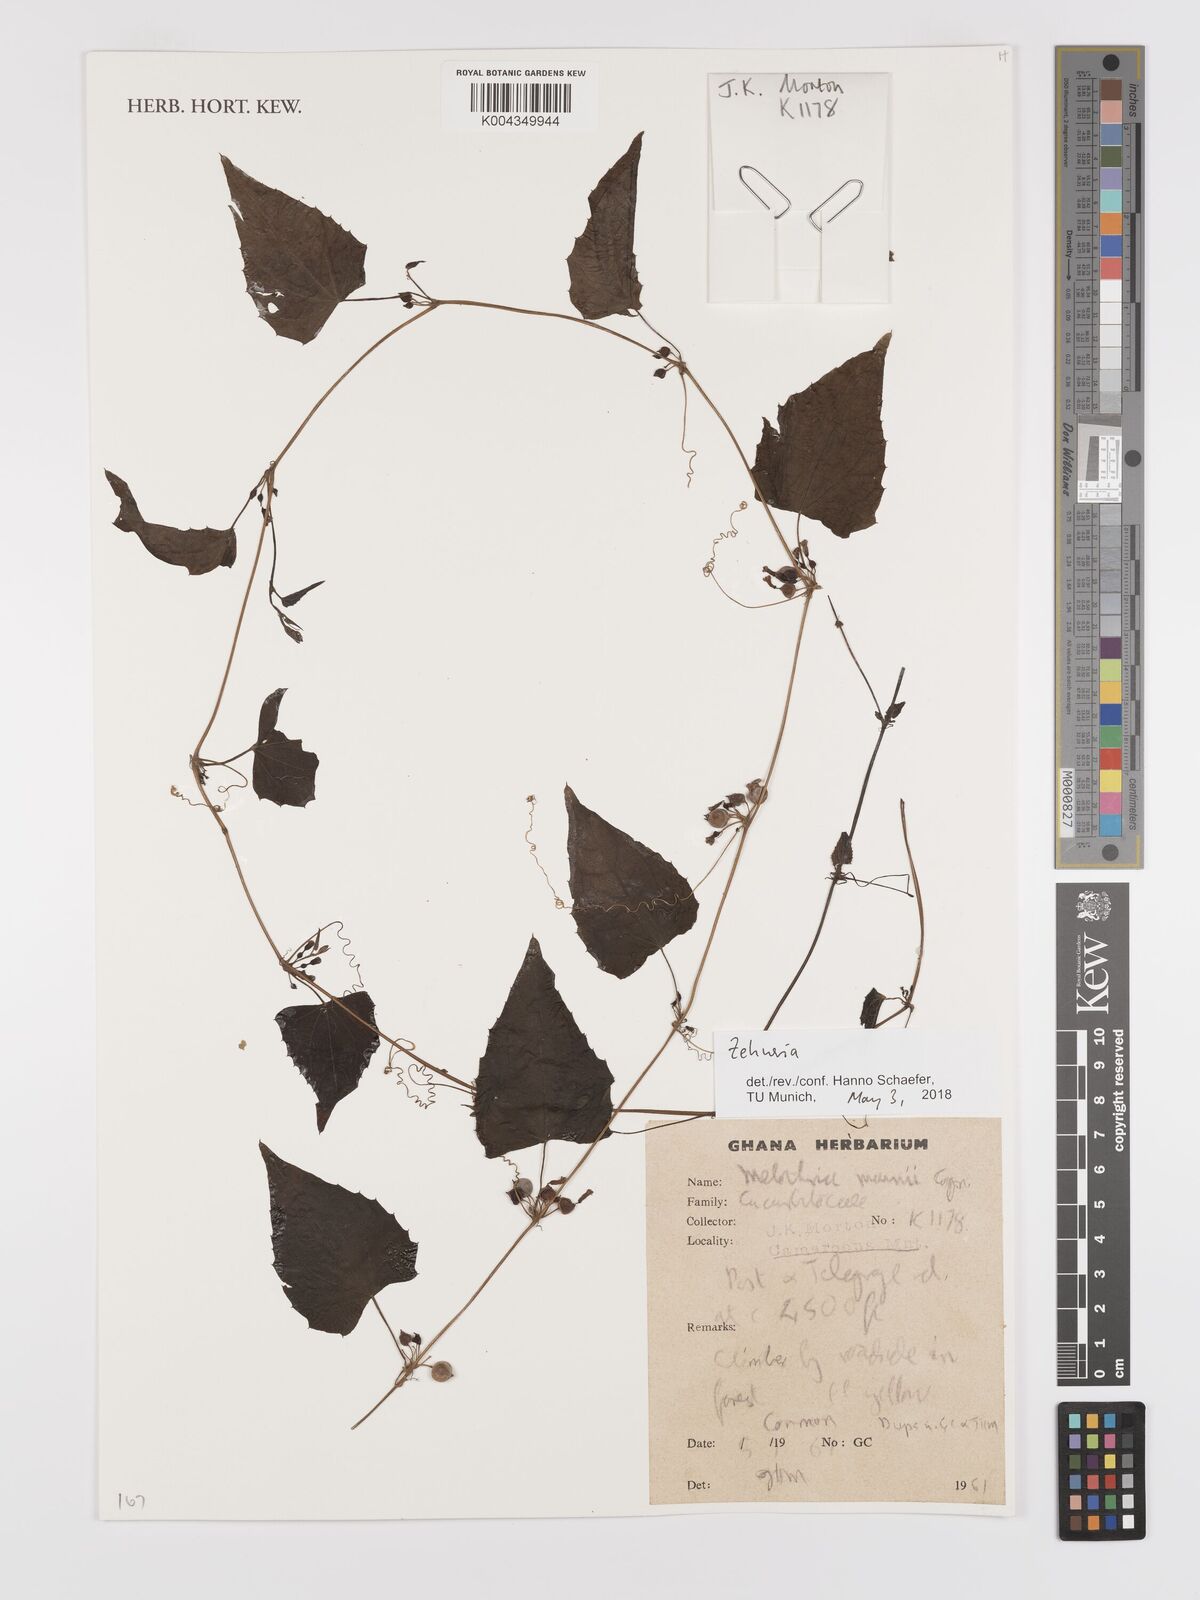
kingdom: Plantae
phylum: Tracheophyta
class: Magnoliopsida
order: Cucurbitales
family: Cucurbitaceae
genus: Zehneria
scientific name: Zehneria
